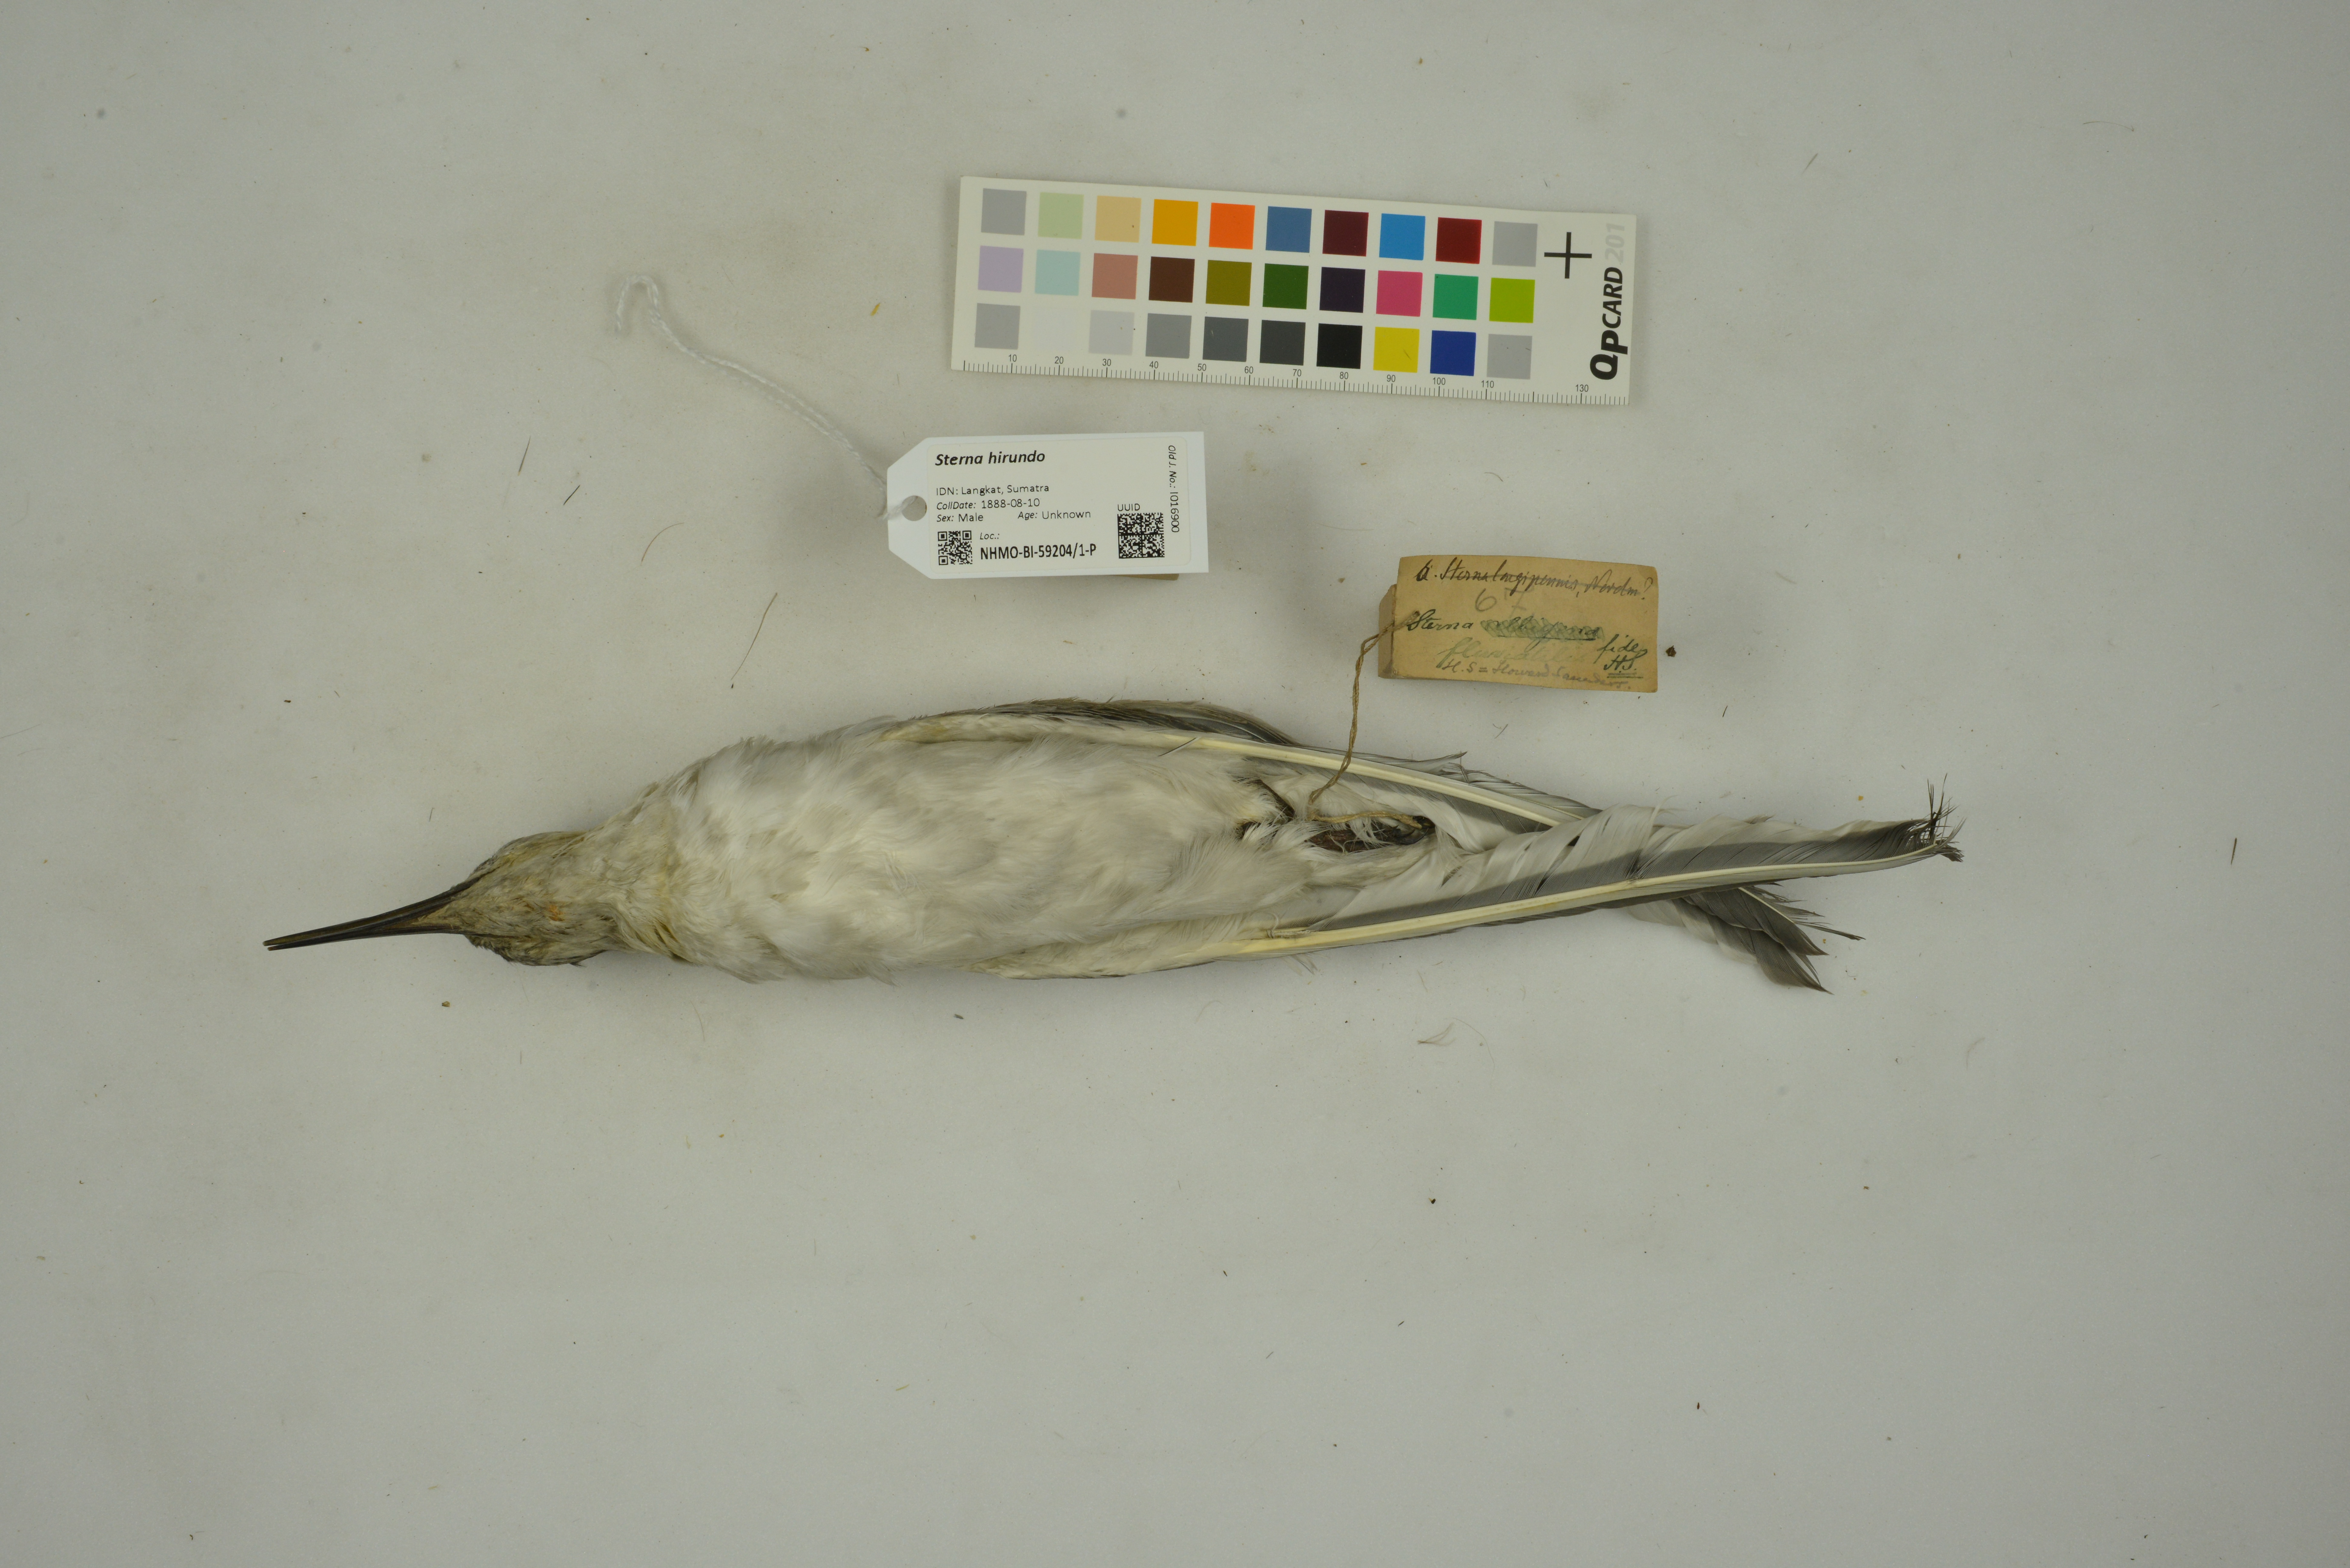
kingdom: Animalia
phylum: Chordata
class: Aves
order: Charadriiformes
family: Laridae
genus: Sterna
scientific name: Sterna hirundo
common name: Common tern
